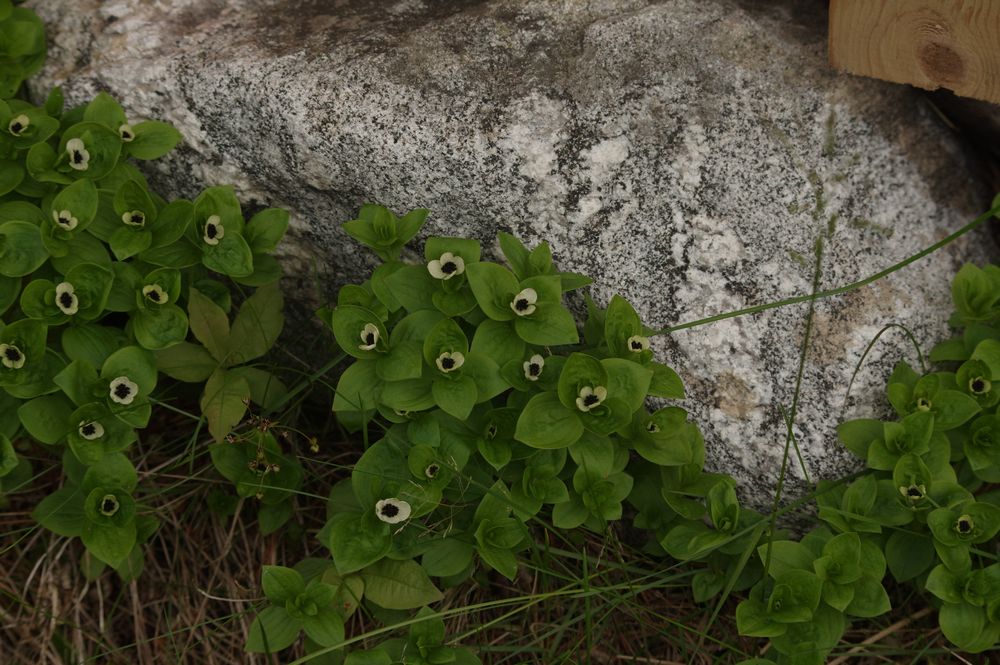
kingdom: Plantae
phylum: Tracheophyta
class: Magnoliopsida
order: Cornales
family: Cornaceae
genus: Cornus
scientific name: Cornus suecica
